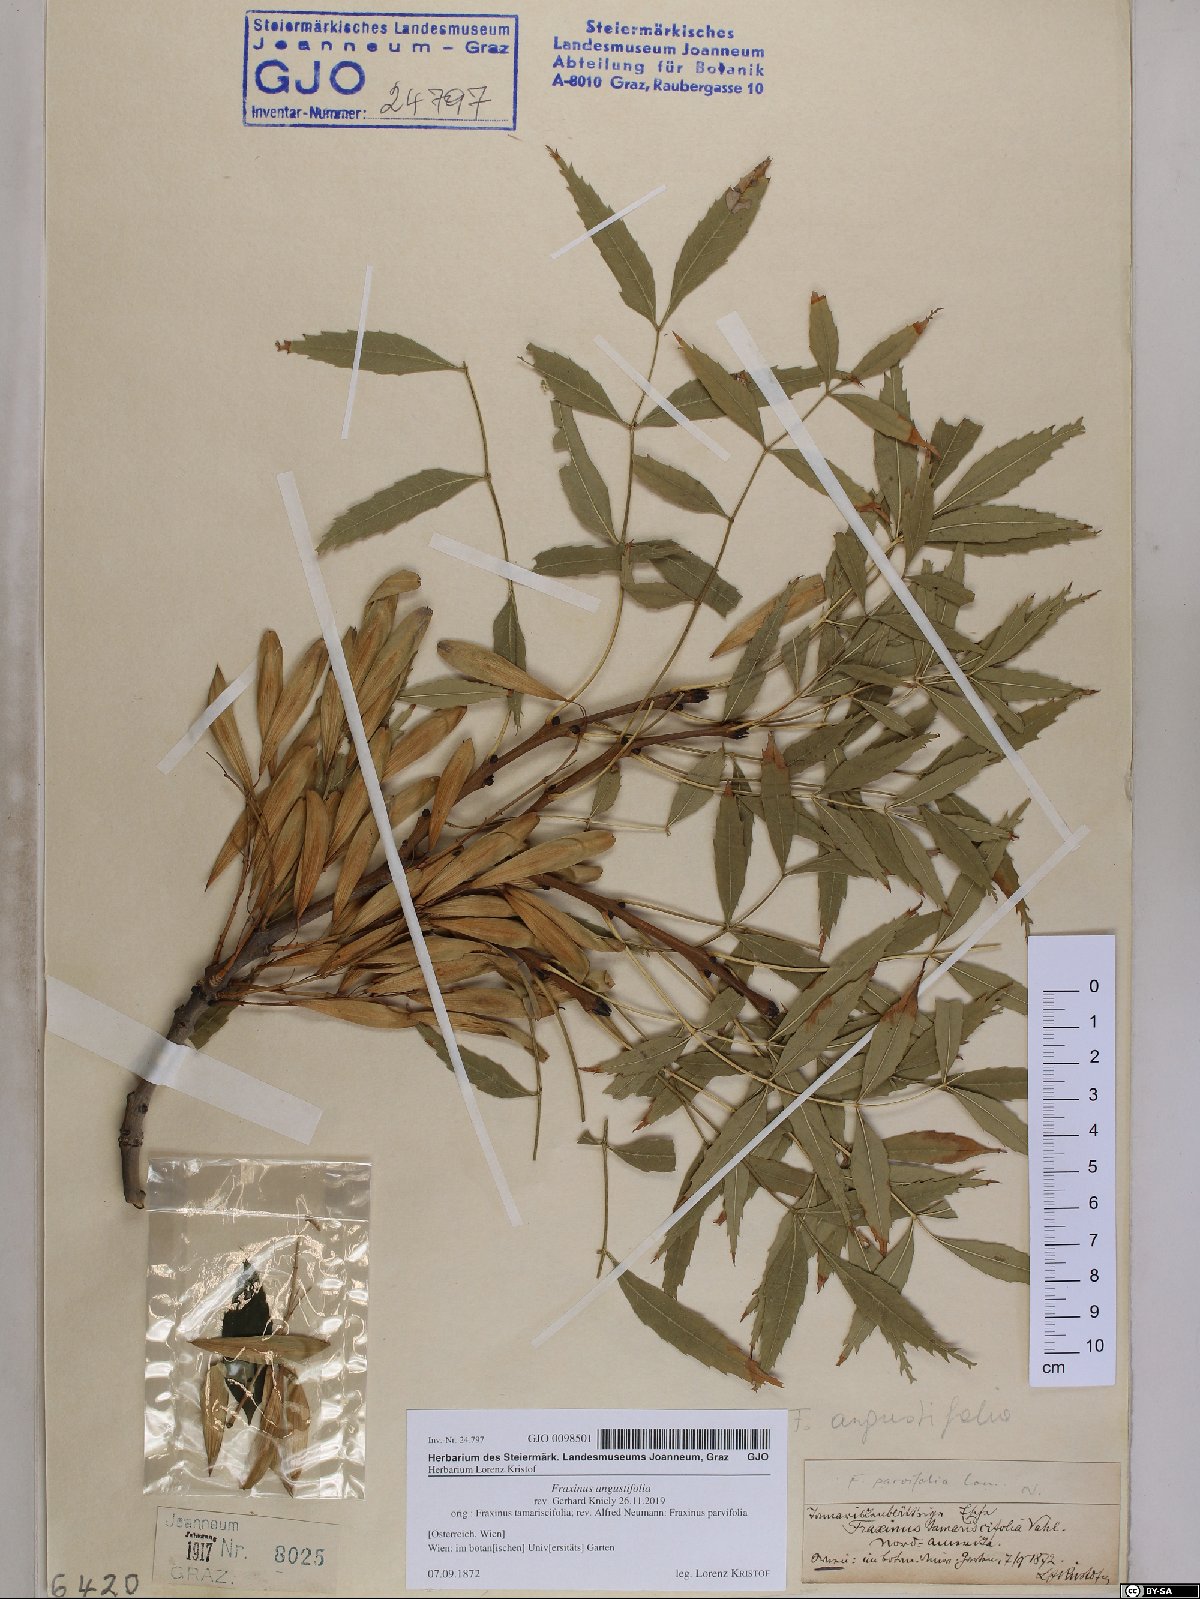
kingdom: Plantae
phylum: Tracheophyta
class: Magnoliopsida
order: Lamiales
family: Oleaceae
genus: Fraxinus
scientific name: Fraxinus angustifolia
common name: Narrow-leafed ash
